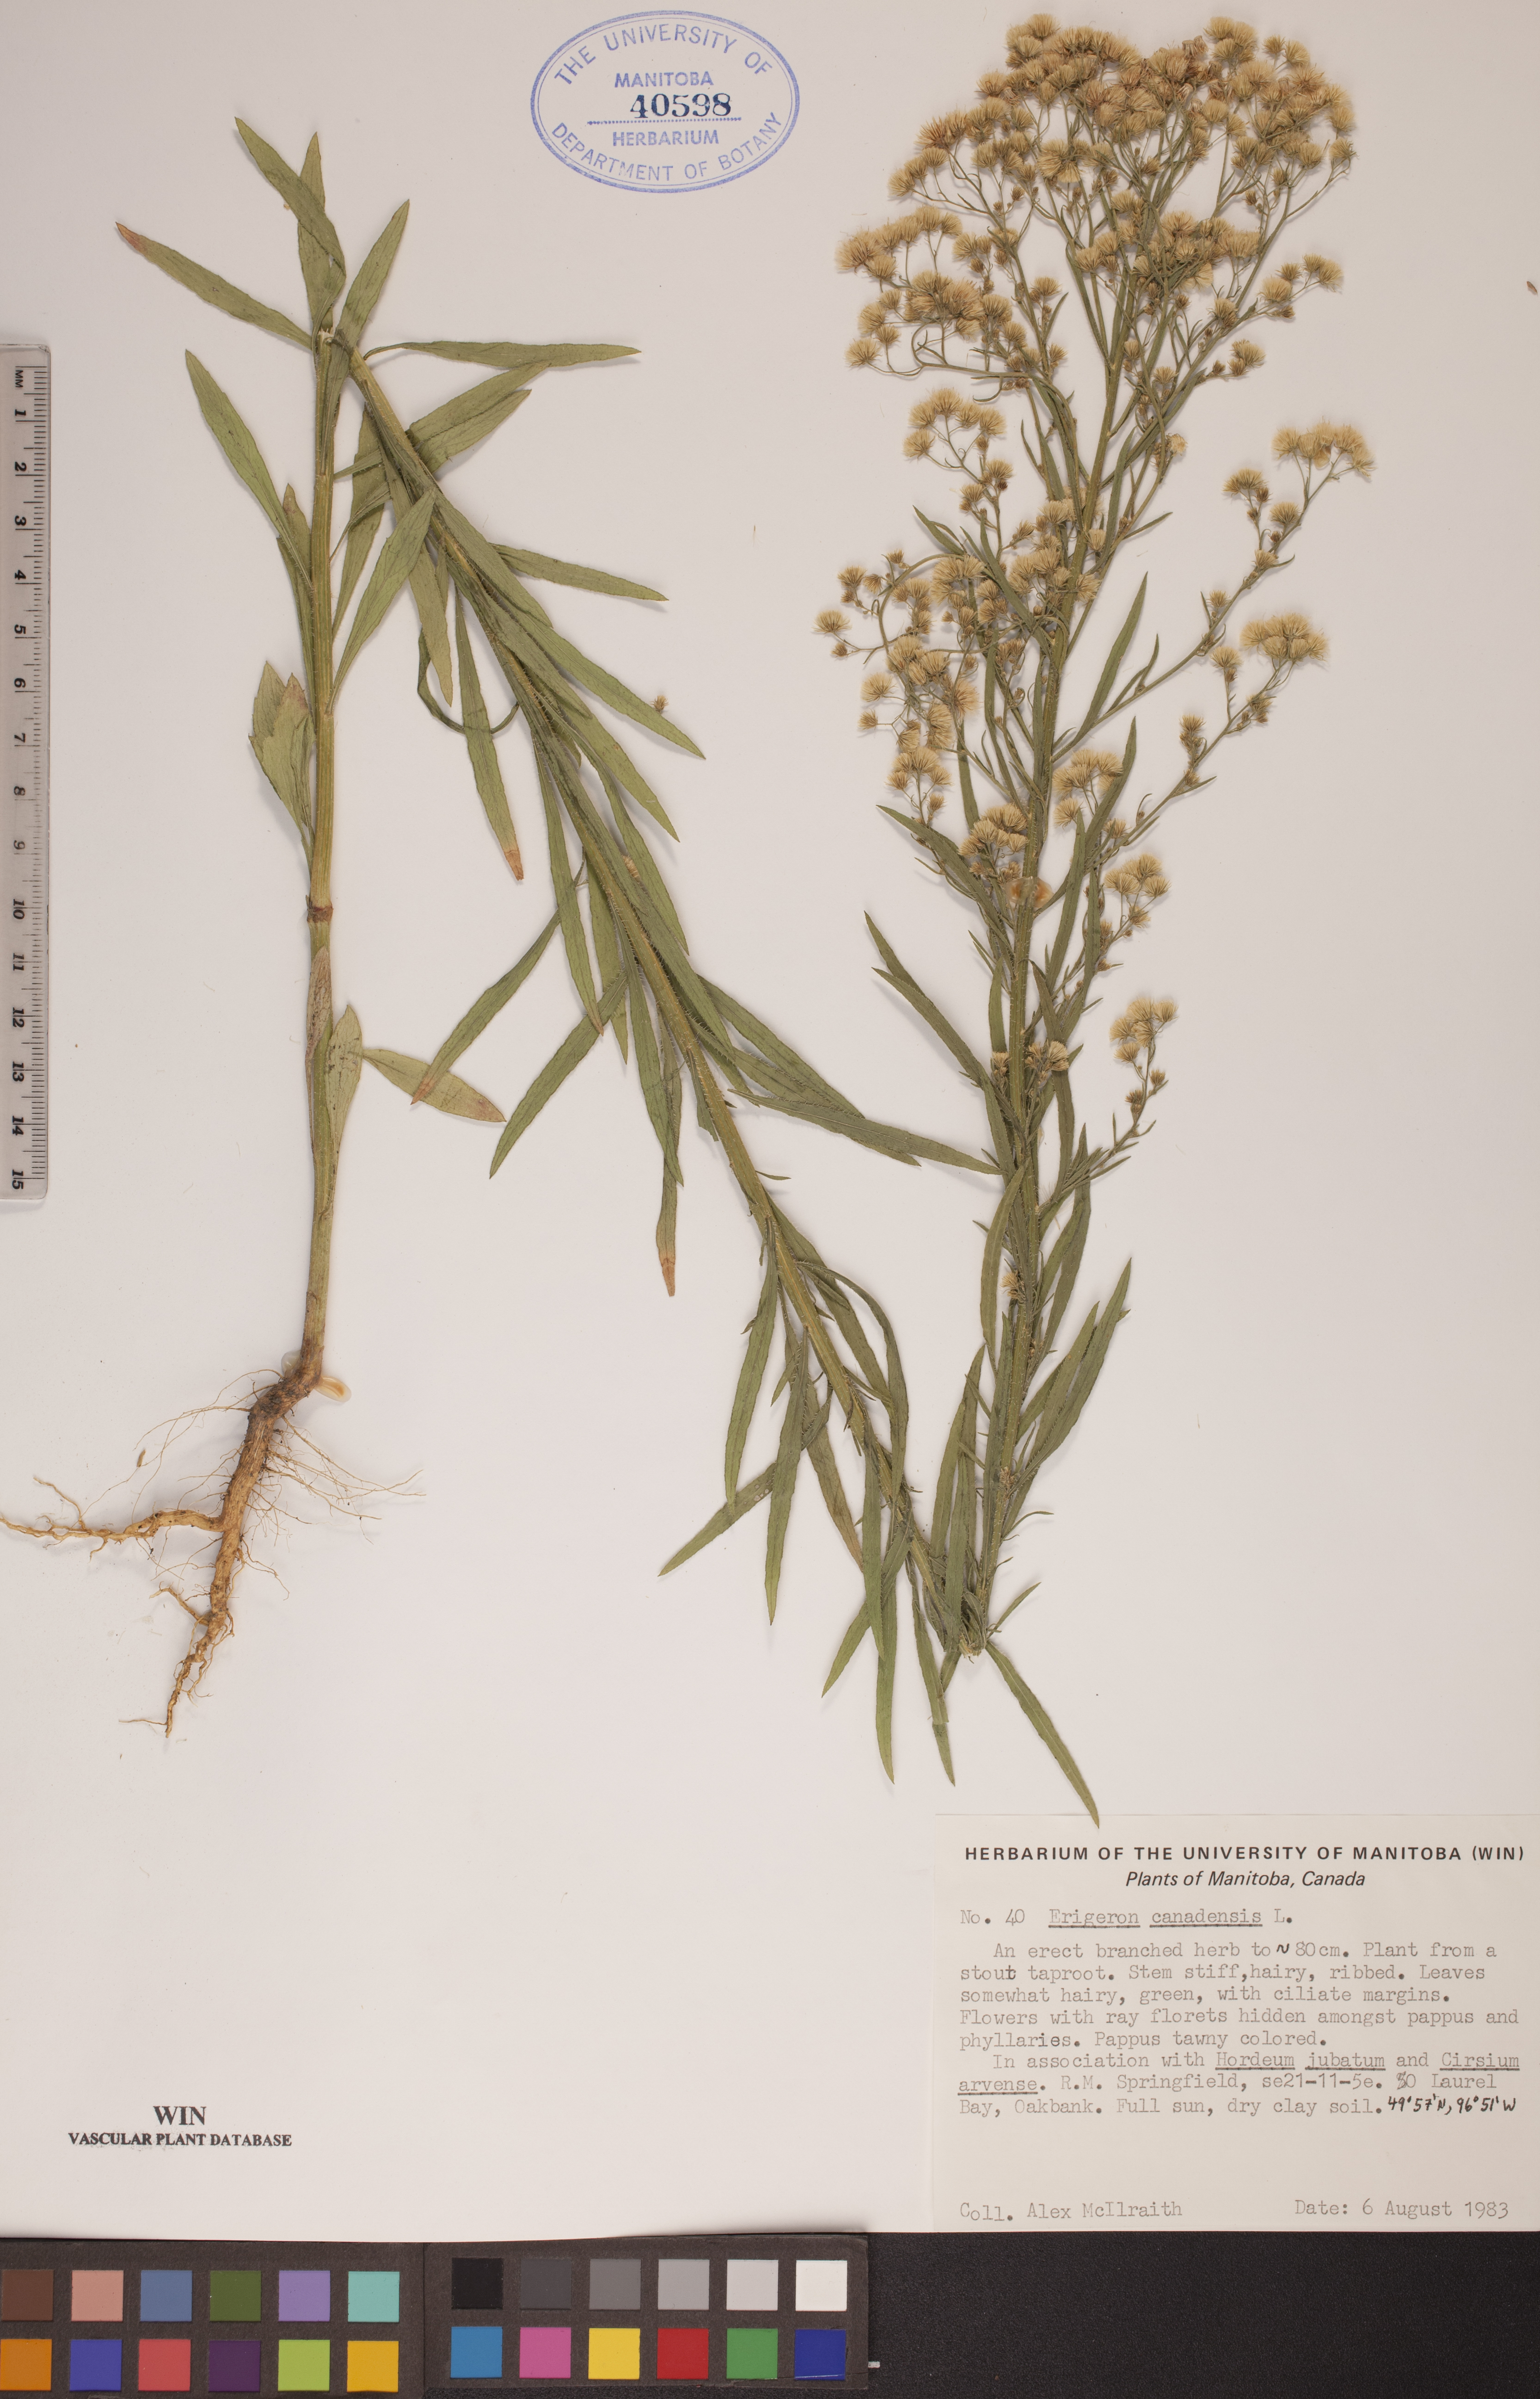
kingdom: Plantae
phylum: Tracheophyta
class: Magnoliopsida
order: Asterales
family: Asteraceae
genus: Erigeron
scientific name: Erigeron canadensis
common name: Canadian fleabane
